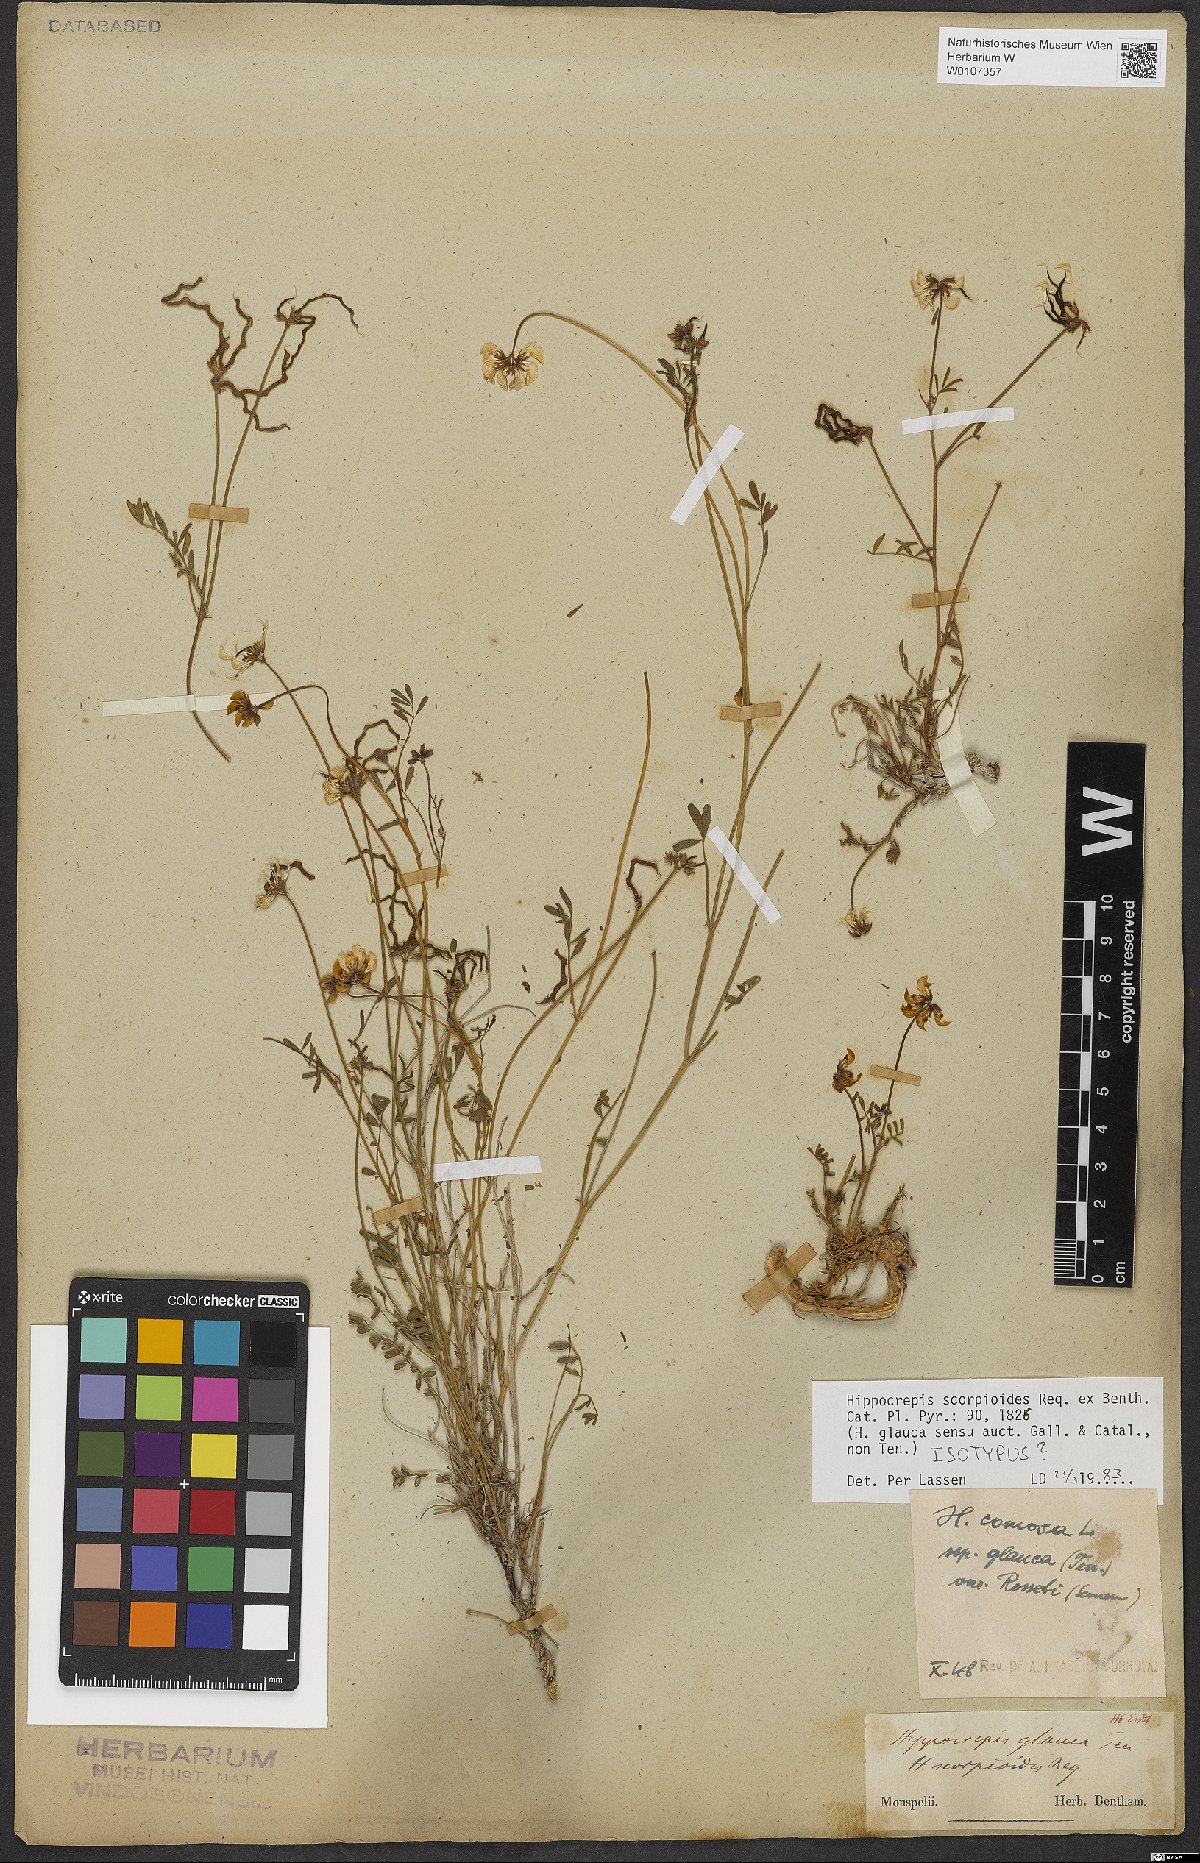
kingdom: Plantae
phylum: Tracheophyta
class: Magnoliopsida
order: Fabales
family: Fabaceae
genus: Hippocrepis
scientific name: Hippocrepis scorpioides
